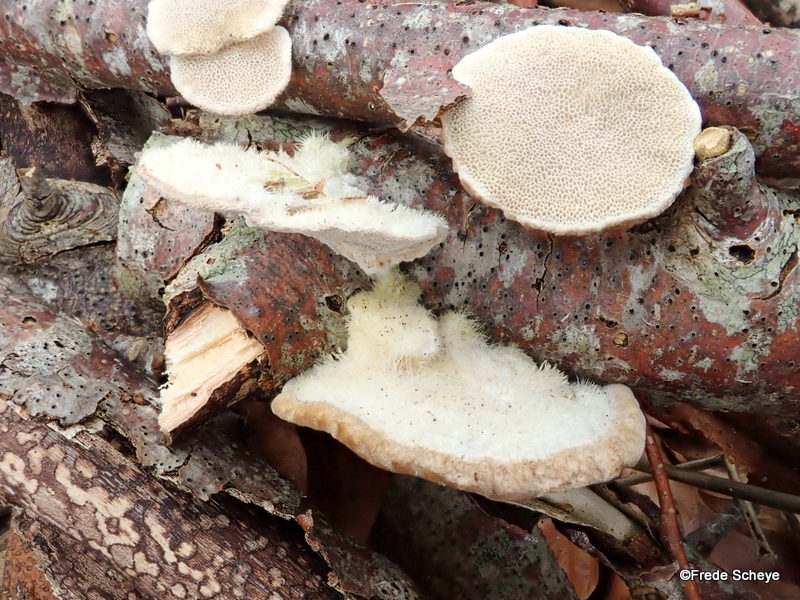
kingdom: Fungi
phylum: Basidiomycota
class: Agaricomycetes
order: Polyporales
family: Polyporaceae
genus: Trametes
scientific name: Trametes hirsuta
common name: håret læderporesvamp
